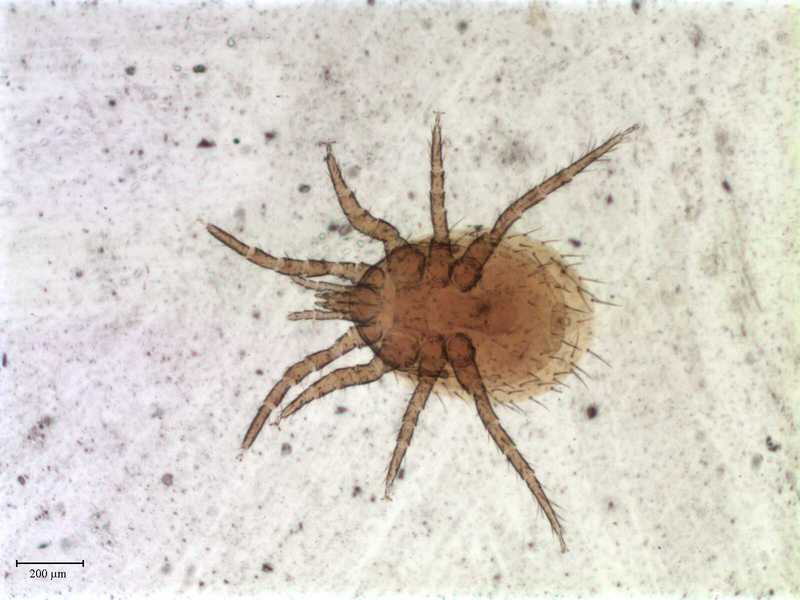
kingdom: Animalia
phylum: Arthropoda
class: Arachnida
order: Mesostigmata
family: Laelapidae
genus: Androlaelaps
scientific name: Androlaelaps
